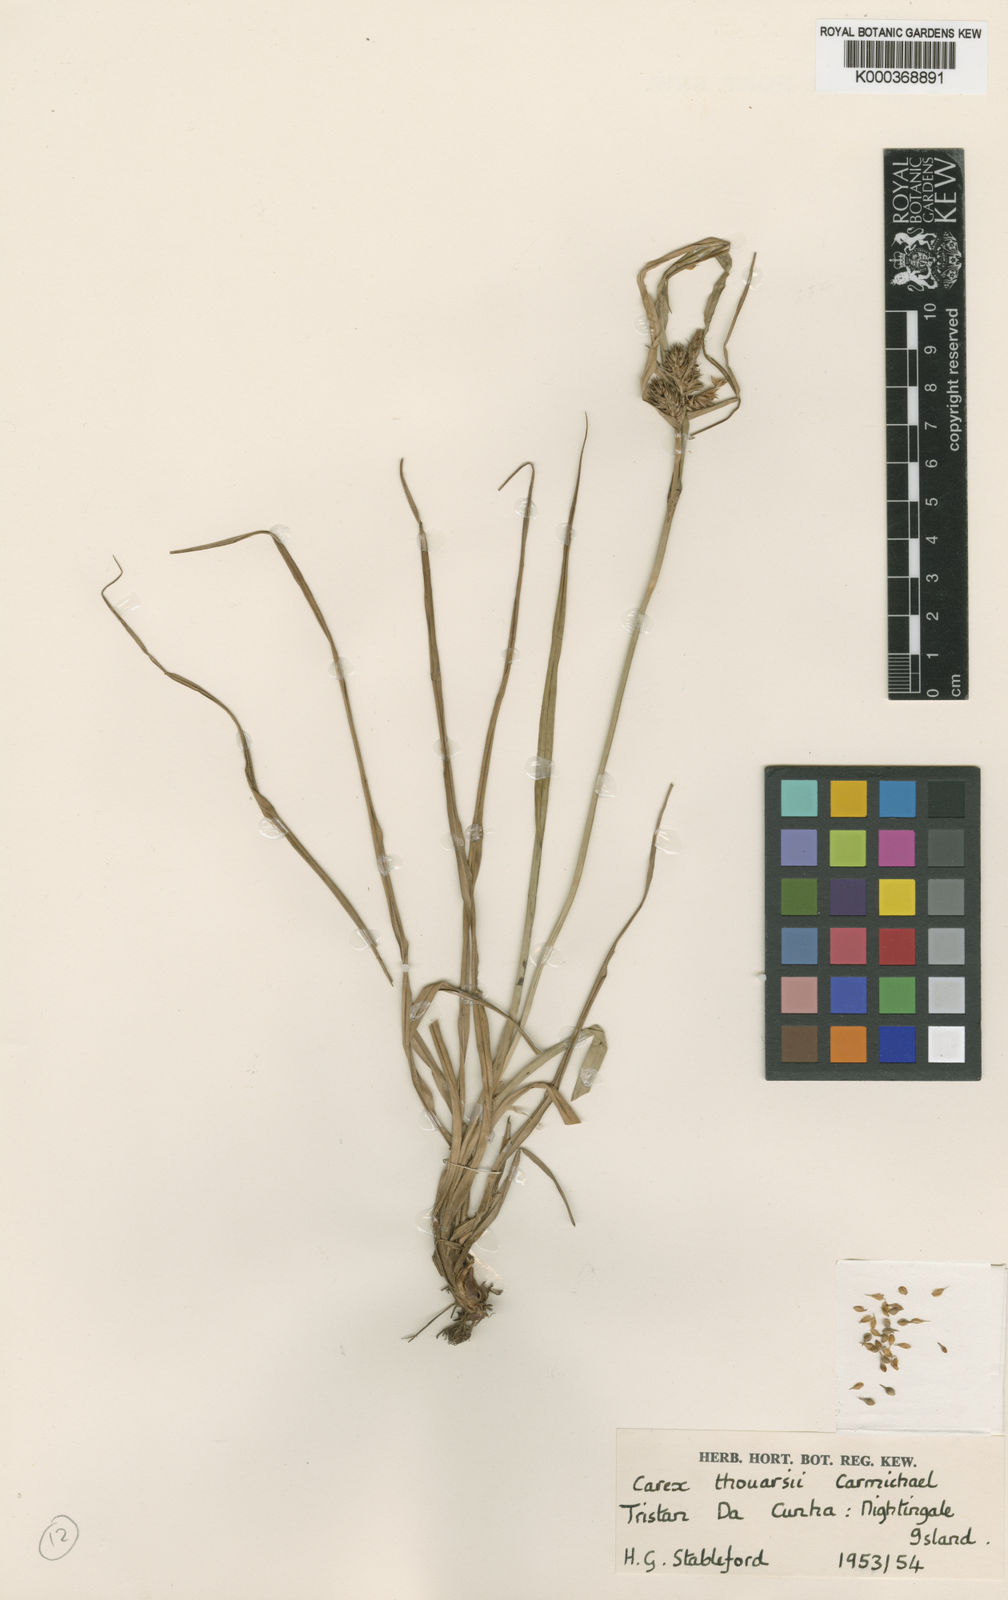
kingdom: Plantae
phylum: Tracheophyta
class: Liliopsida
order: Poales
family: Cyperaceae
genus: Carex
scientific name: Carex thouarsii
